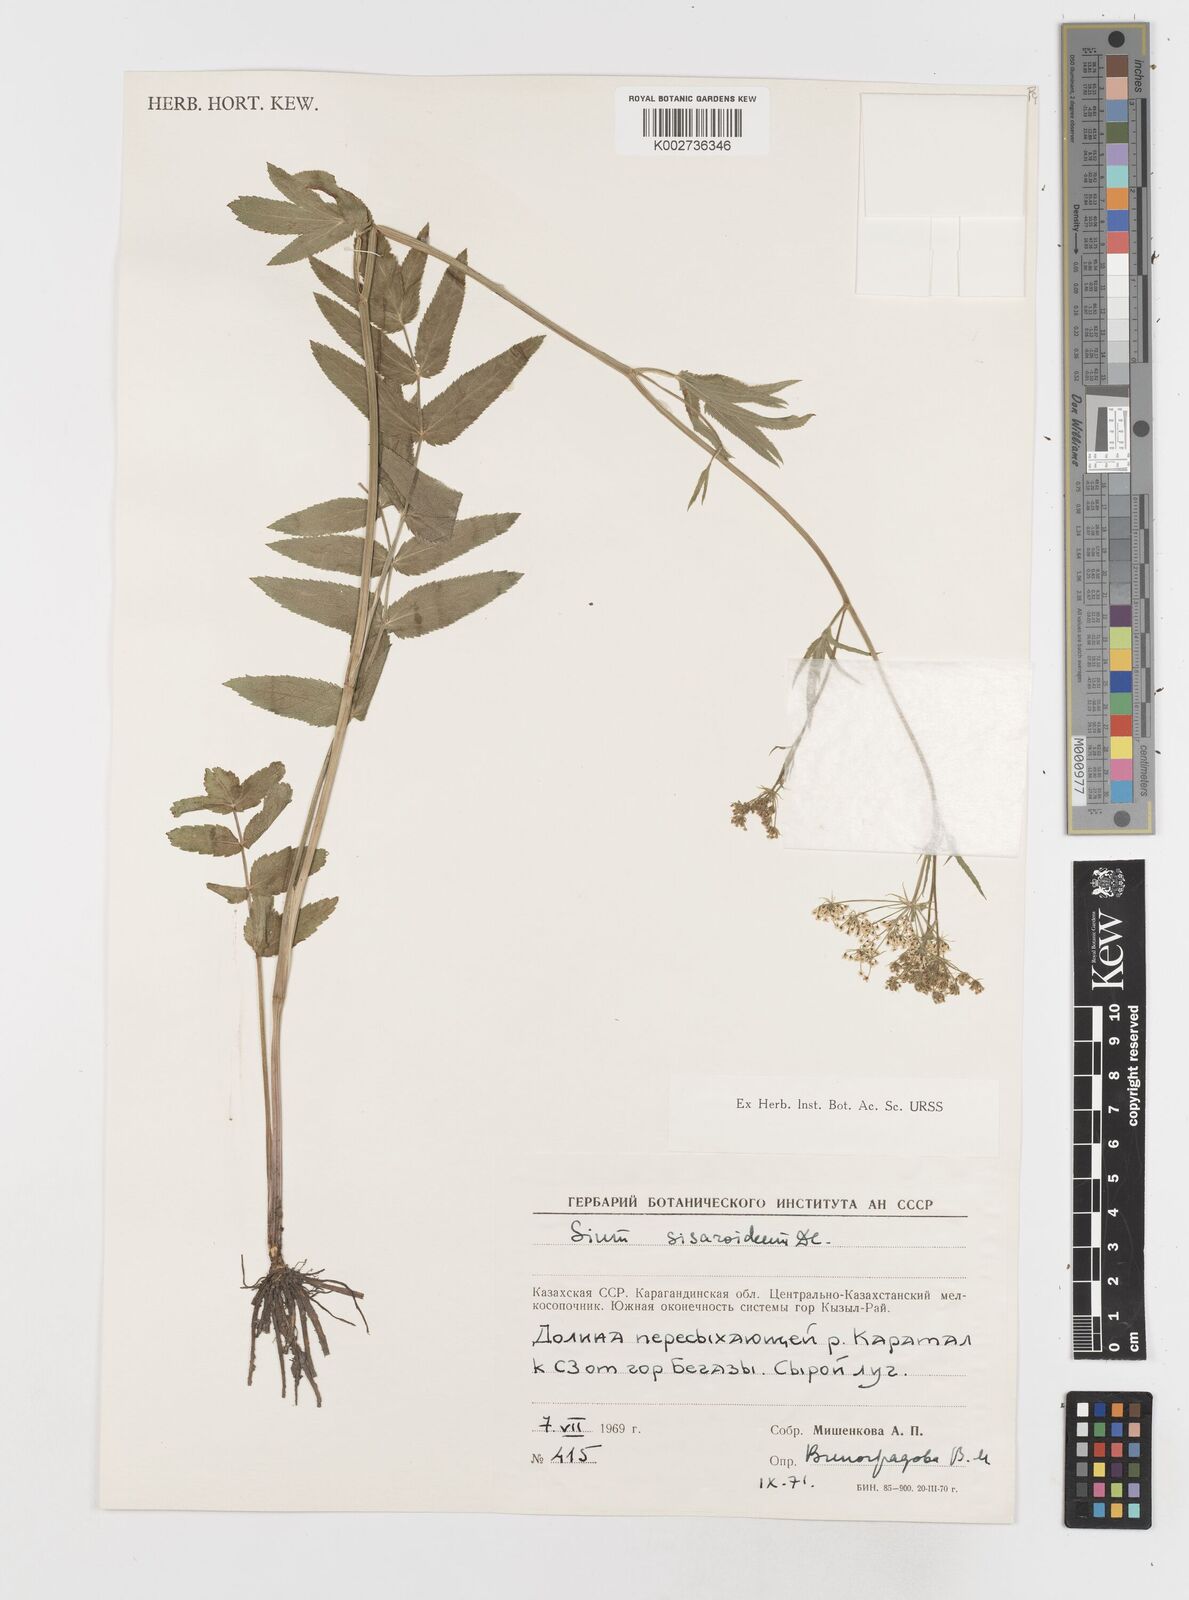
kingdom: Plantae
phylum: Tracheophyta
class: Magnoliopsida
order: Apiales
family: Apiaceae
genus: Sium
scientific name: Sium sisarum
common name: Skirret
